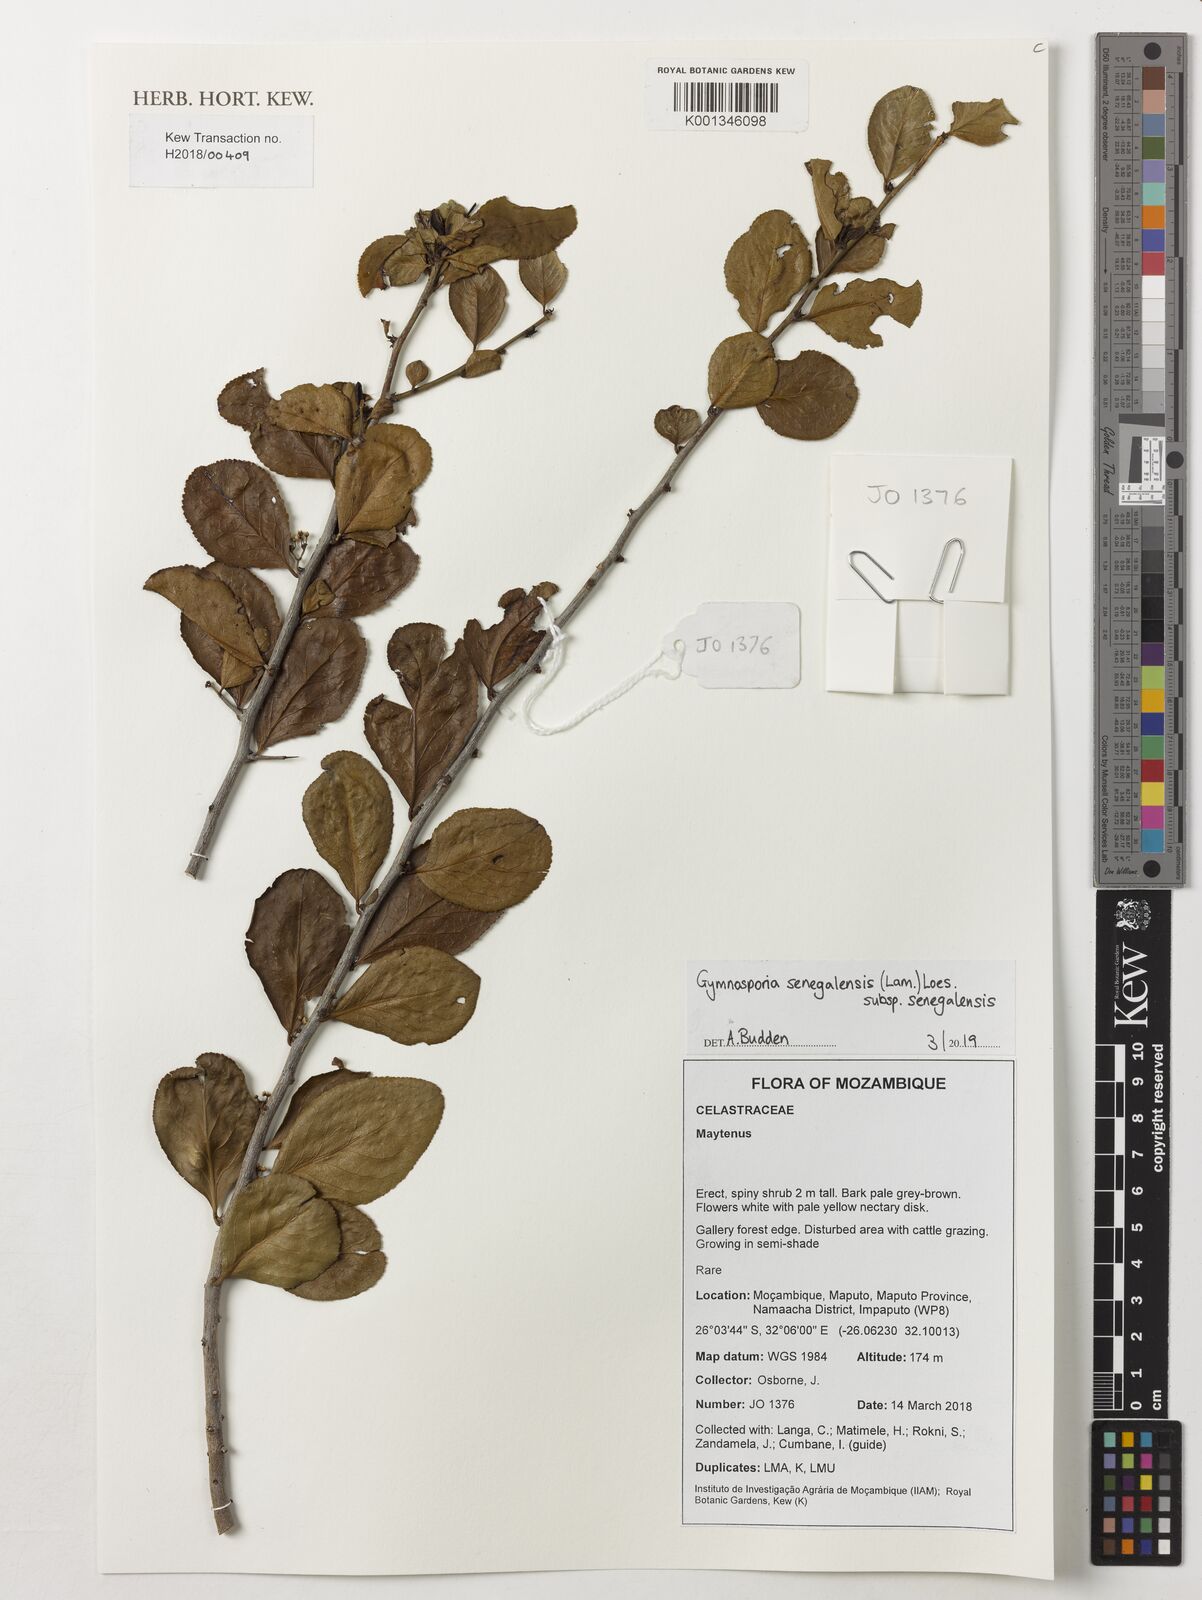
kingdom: Plantae
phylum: Tracheophyta
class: Magnoliopsida
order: Celastrales
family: Celastraceae
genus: Gymnosporia
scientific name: Gymnosporia senegalensis
